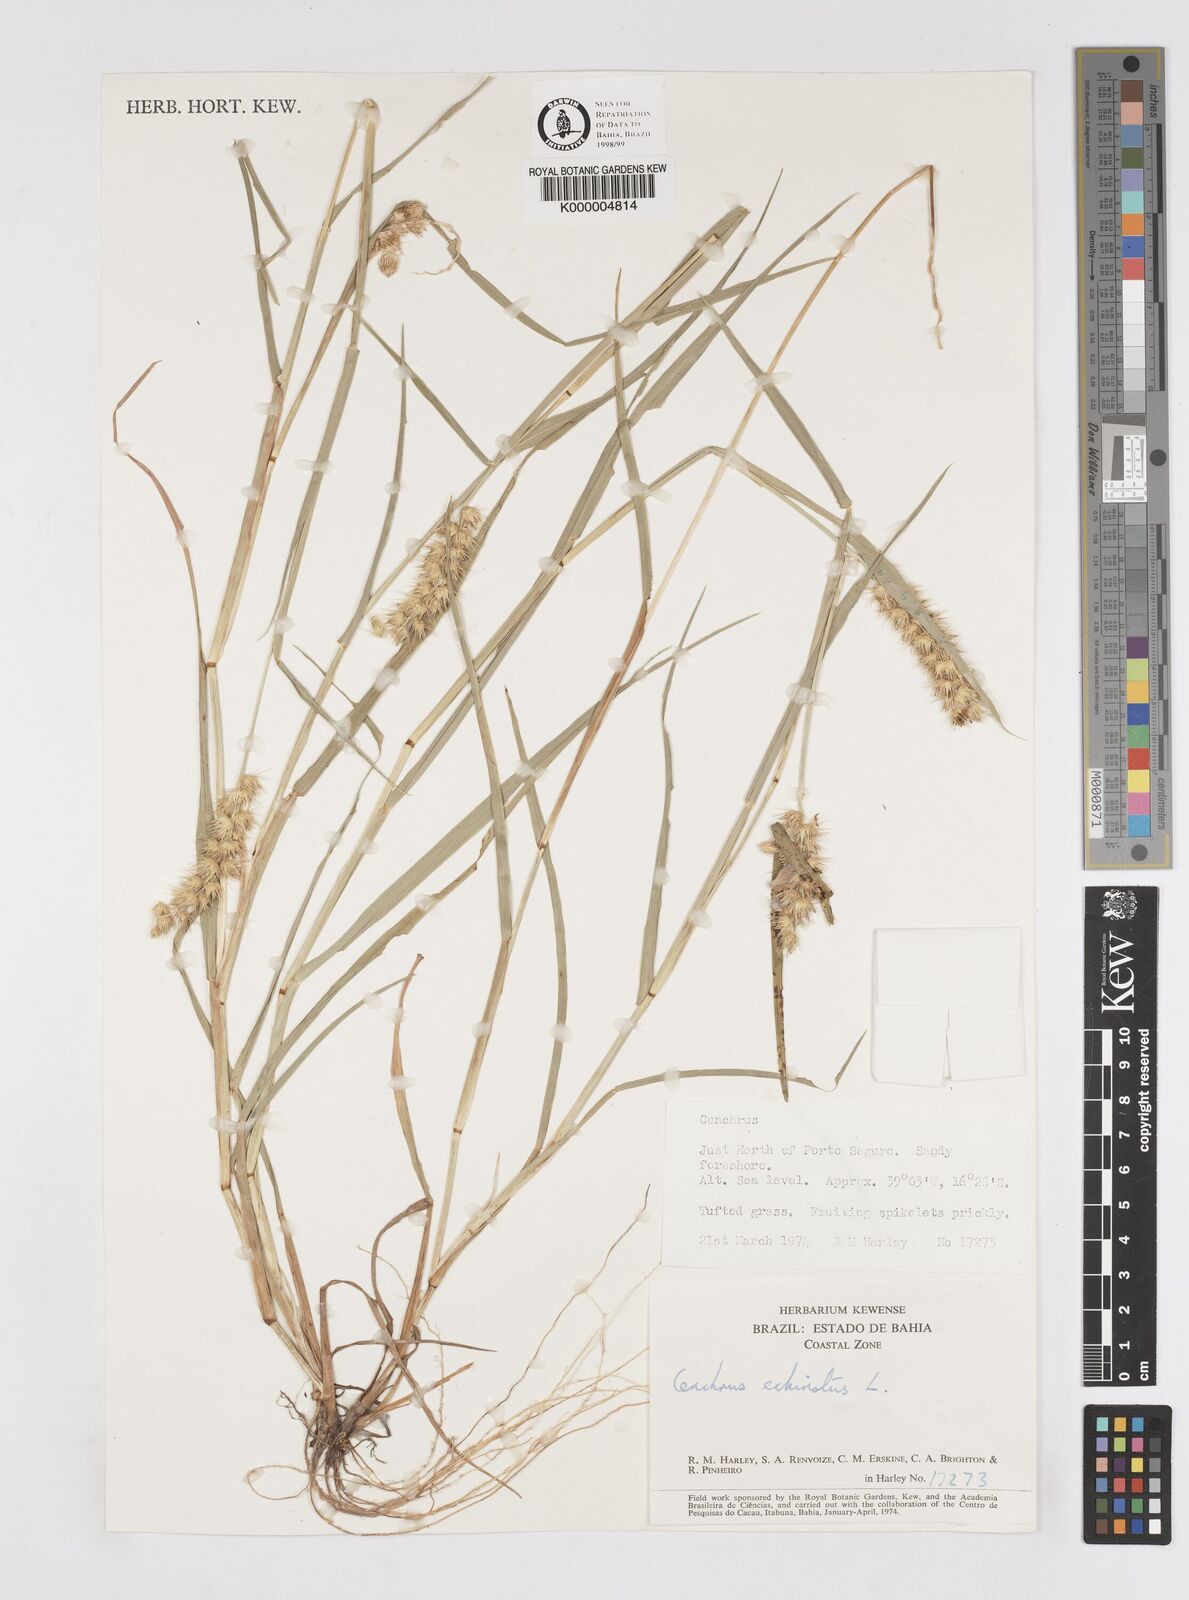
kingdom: Plantae
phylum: Tracheophyta
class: Liliopsida
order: Poales
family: Poaceae
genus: Cenchrus
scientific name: Cenchrus echinatus
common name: Southern sandbur
